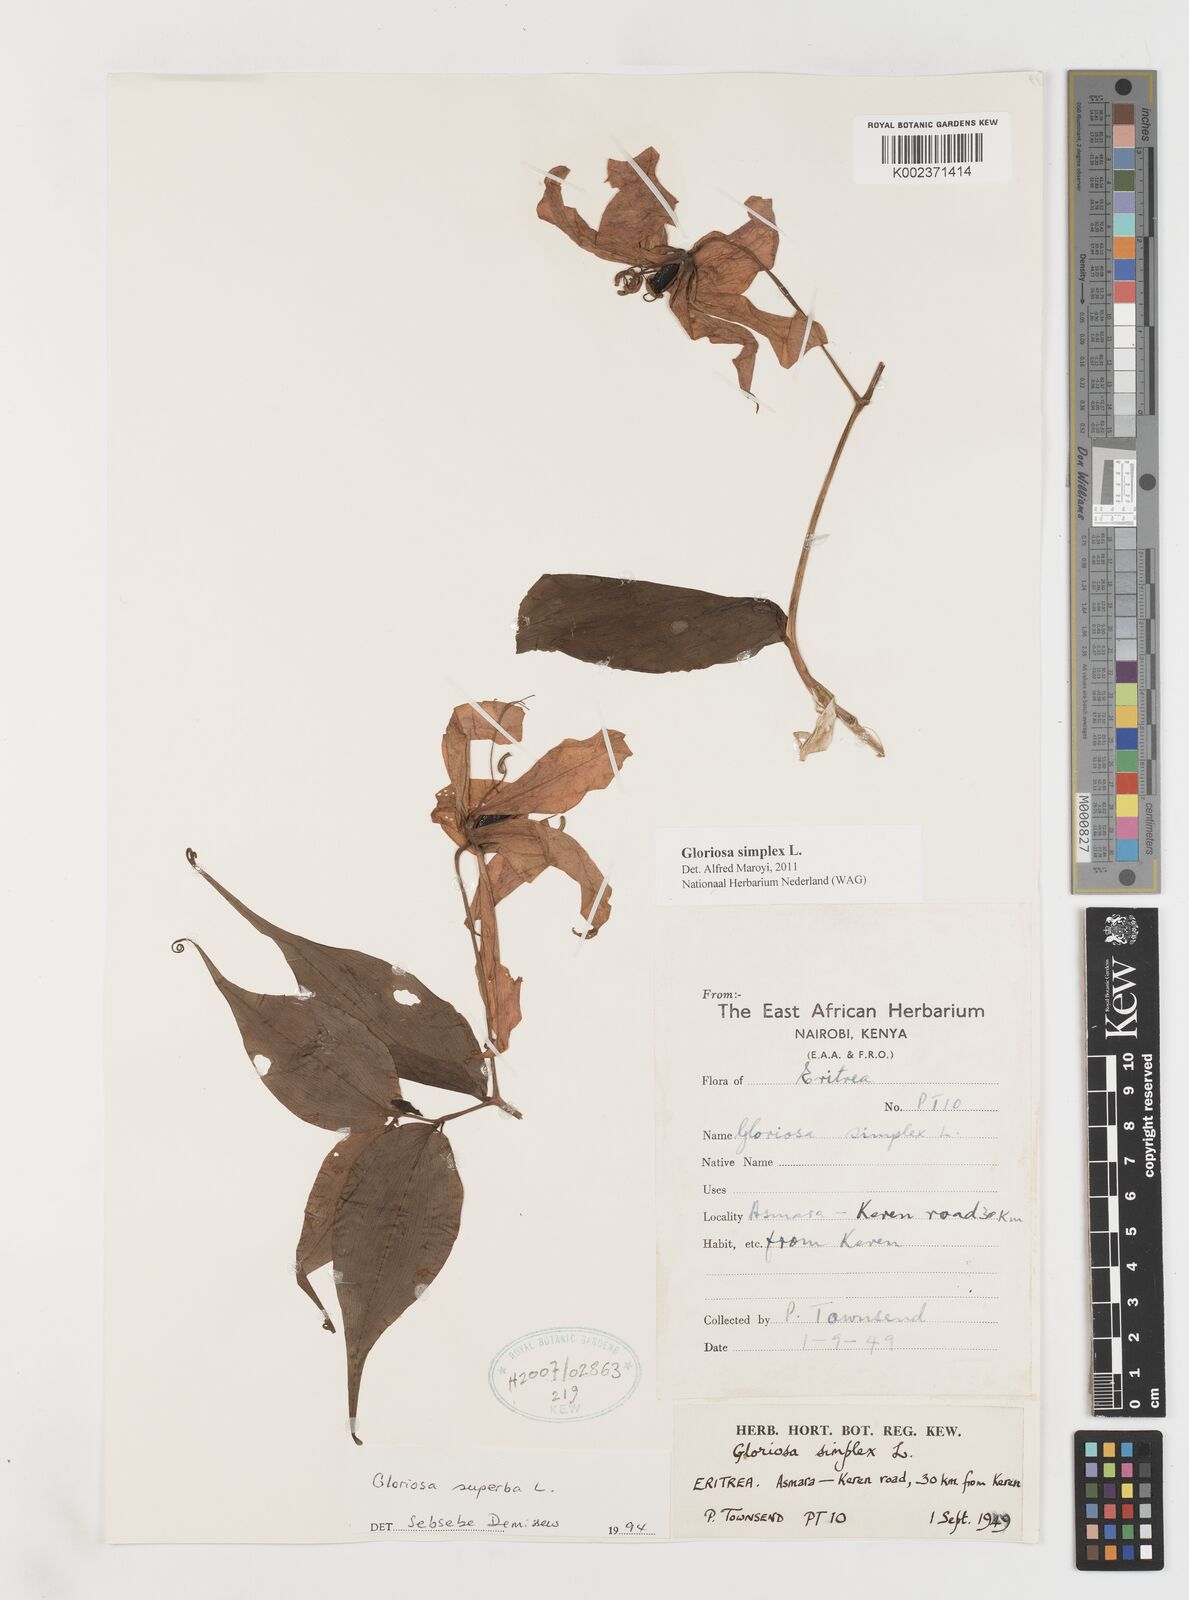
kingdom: Plantae
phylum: Tracheophyta
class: Liliopsida
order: Liliales
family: Colchicaceae
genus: Gloriosa
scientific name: Gloriosa simplex
